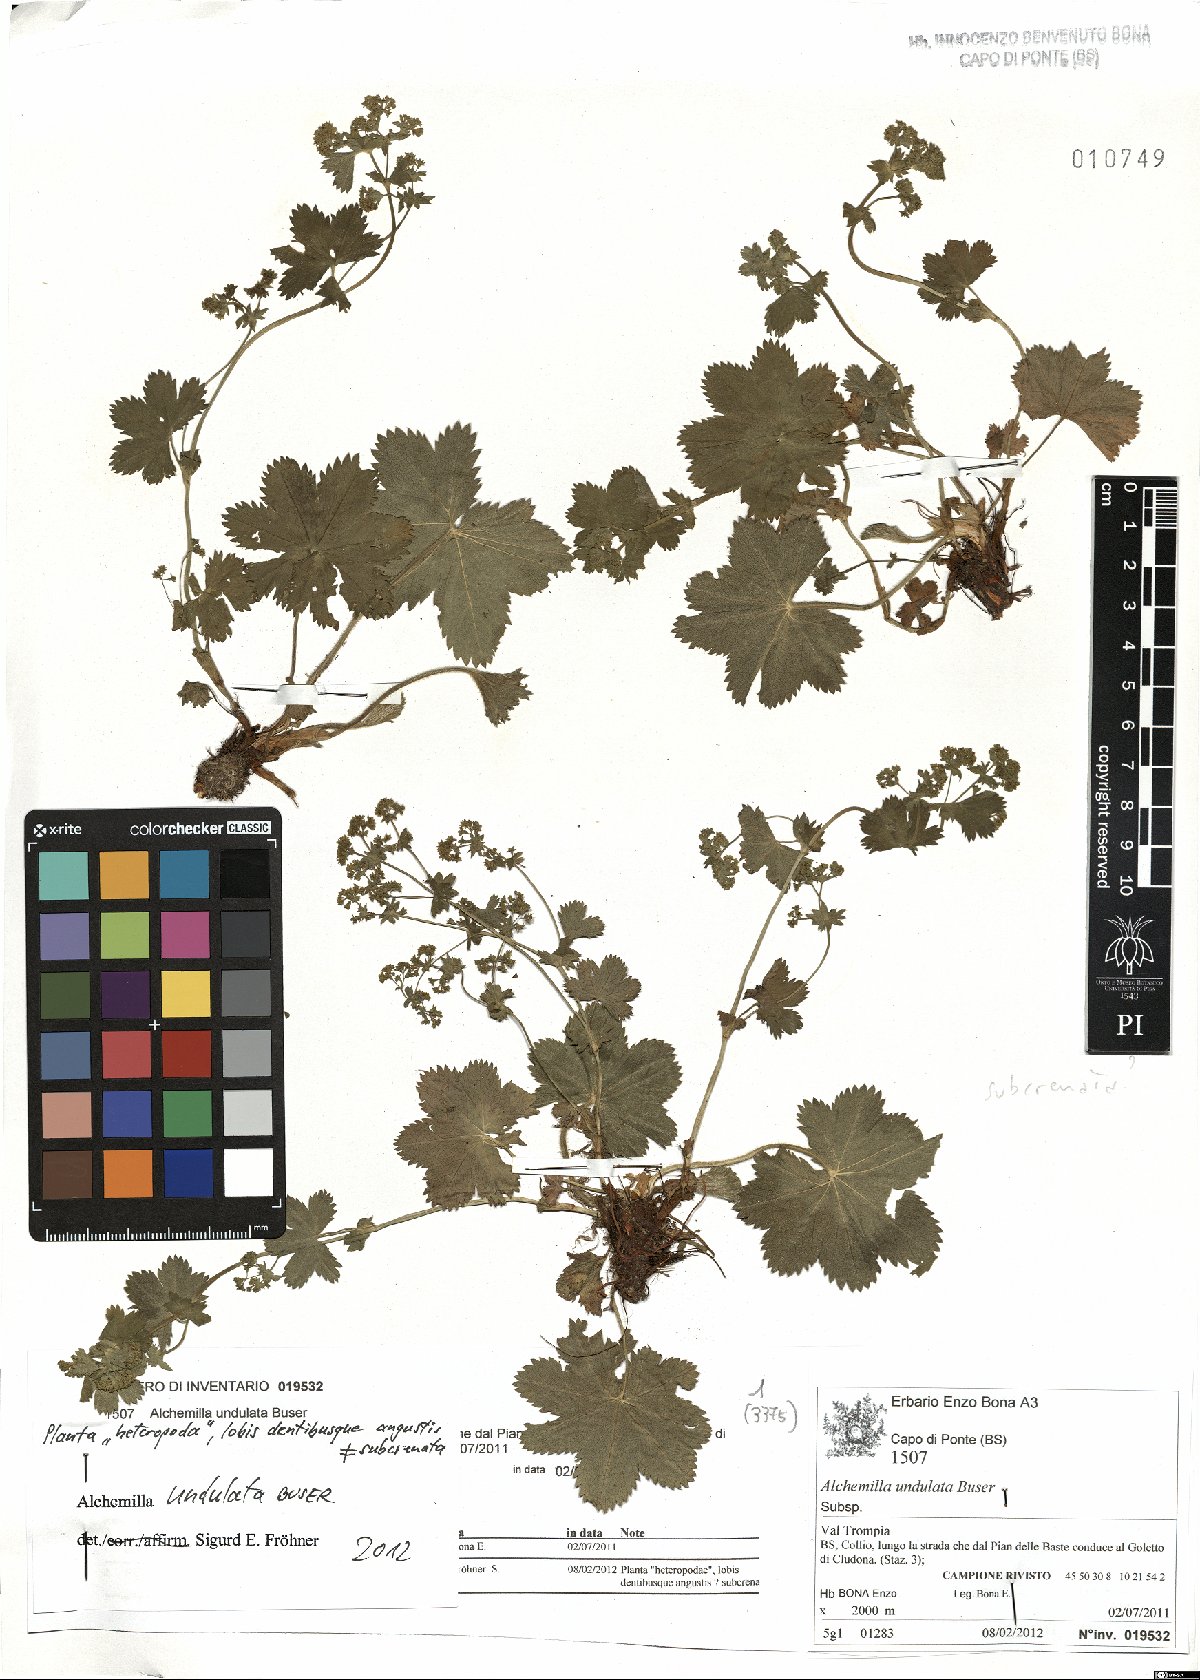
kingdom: Plantae
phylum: Tracheophyta
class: Magnoliopsida
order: Rosales
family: Rosaceae
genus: Alchemilla
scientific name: Alchemilla undulata
